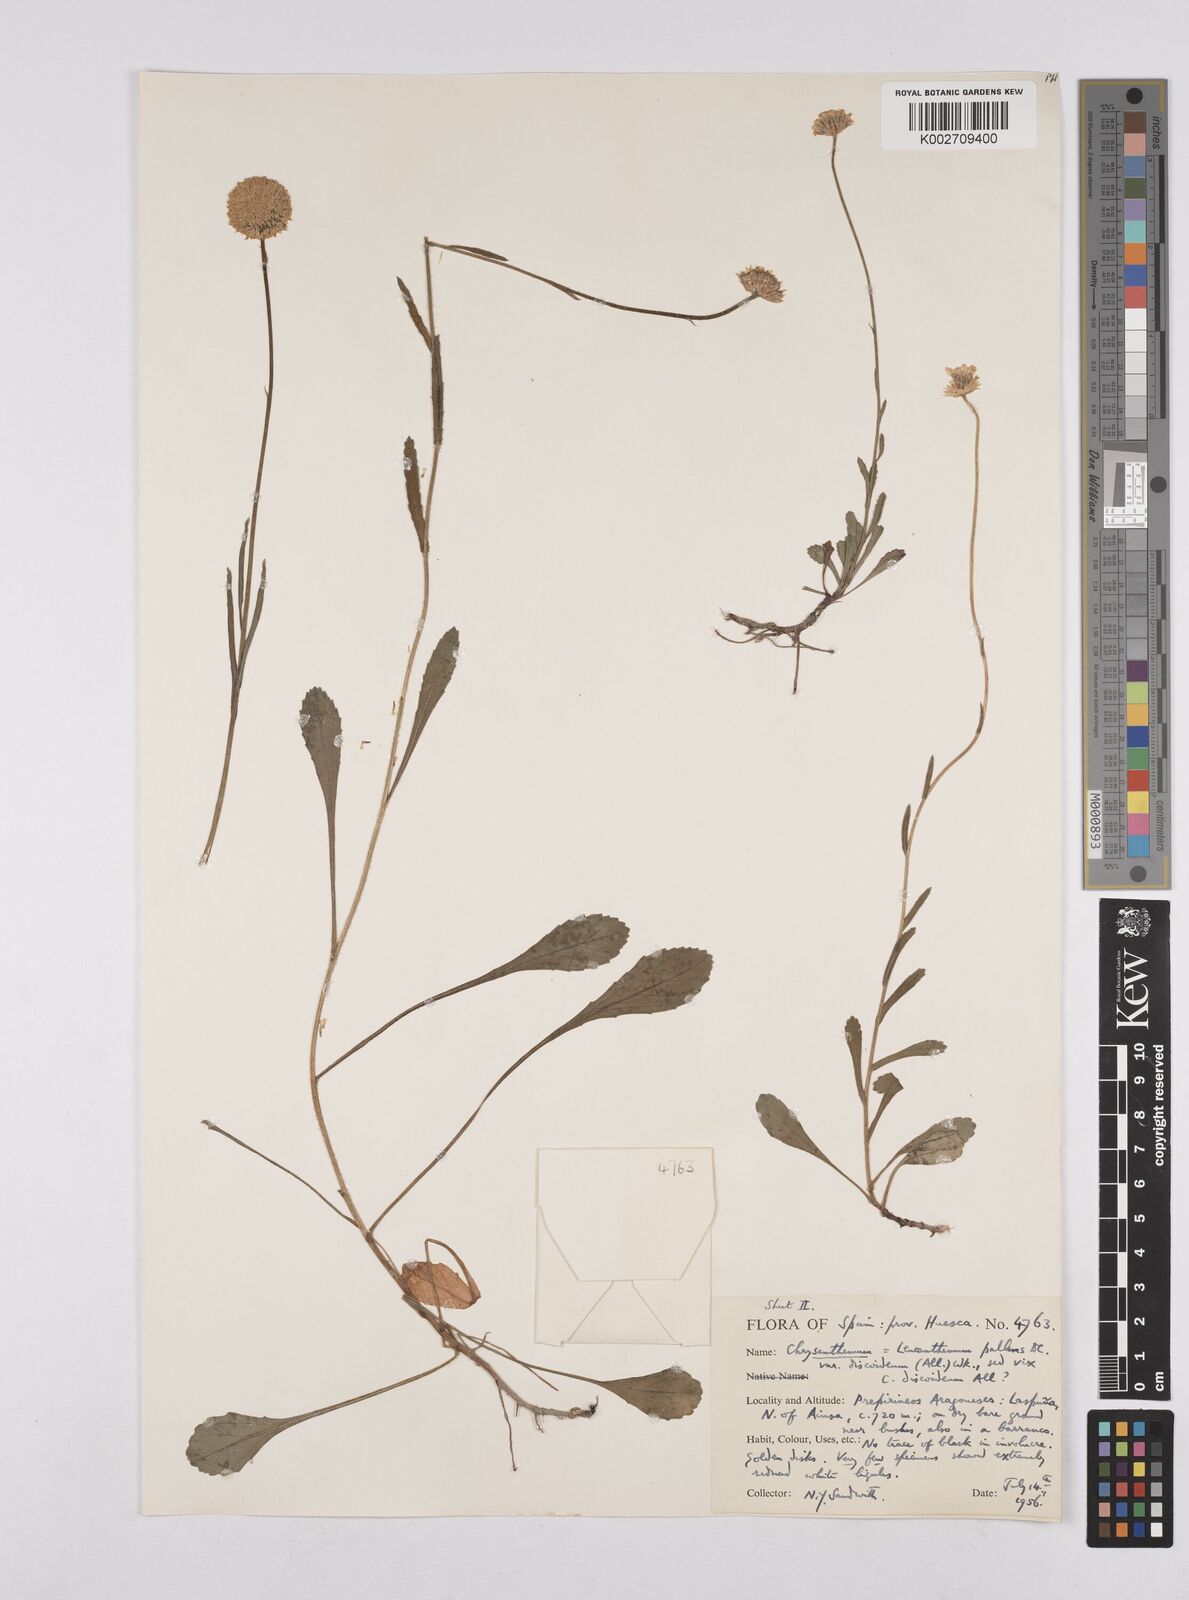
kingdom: Plantae
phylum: Tracheophyta
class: Magnoliopsida
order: Asterales
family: Asteraceae
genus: Leucanthemum
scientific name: Leucanthemum vulgare
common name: Oxeye daisy
